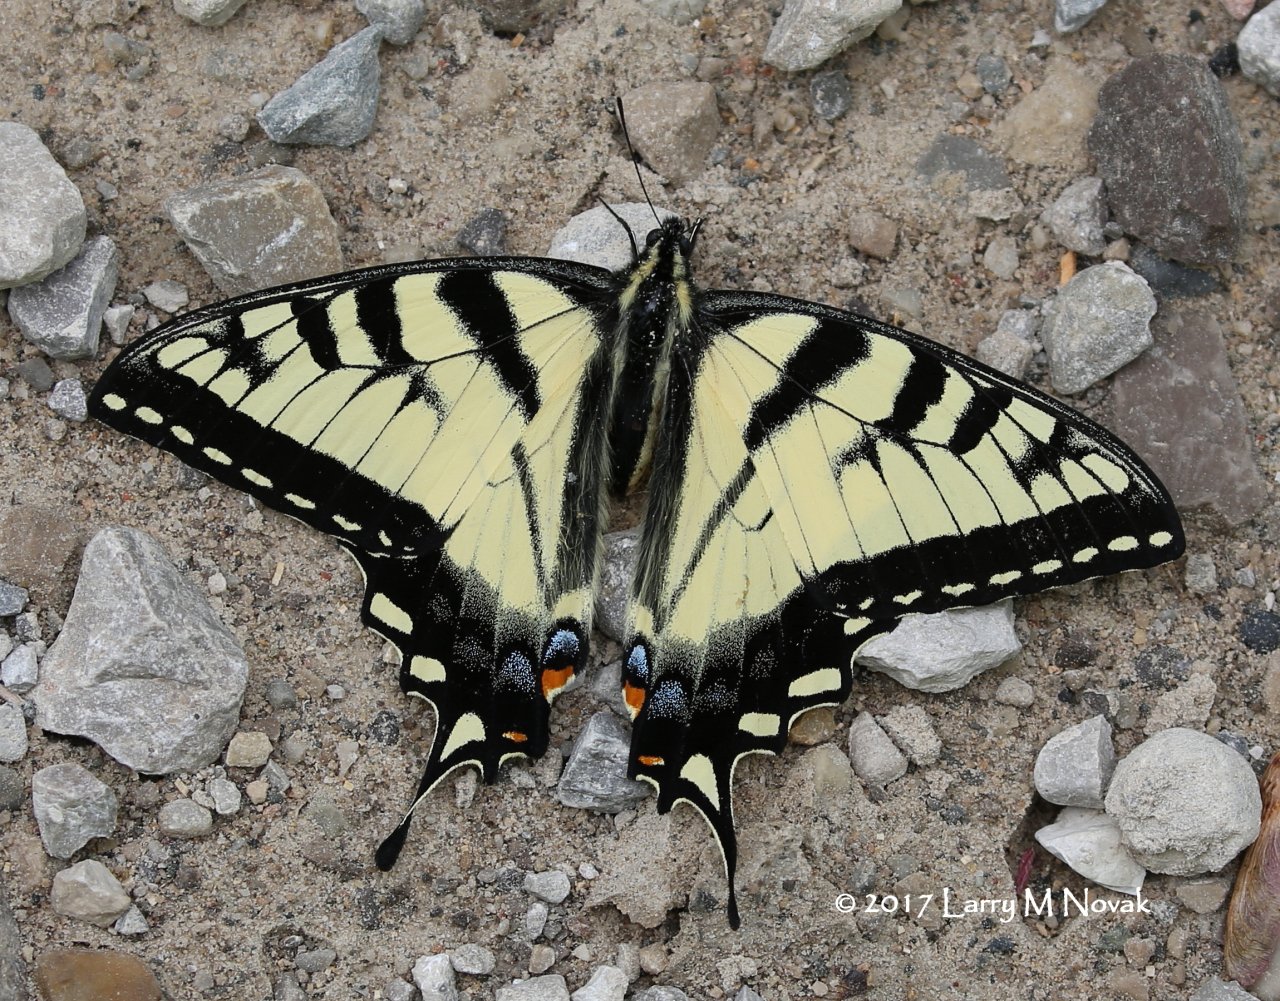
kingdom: Animalia
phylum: Arthropoda
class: Insecta
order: Lepidoptera
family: Papilionidae
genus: Pterourus
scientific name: Pterourus canadensis
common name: Canadian Tiger Swallowtail
